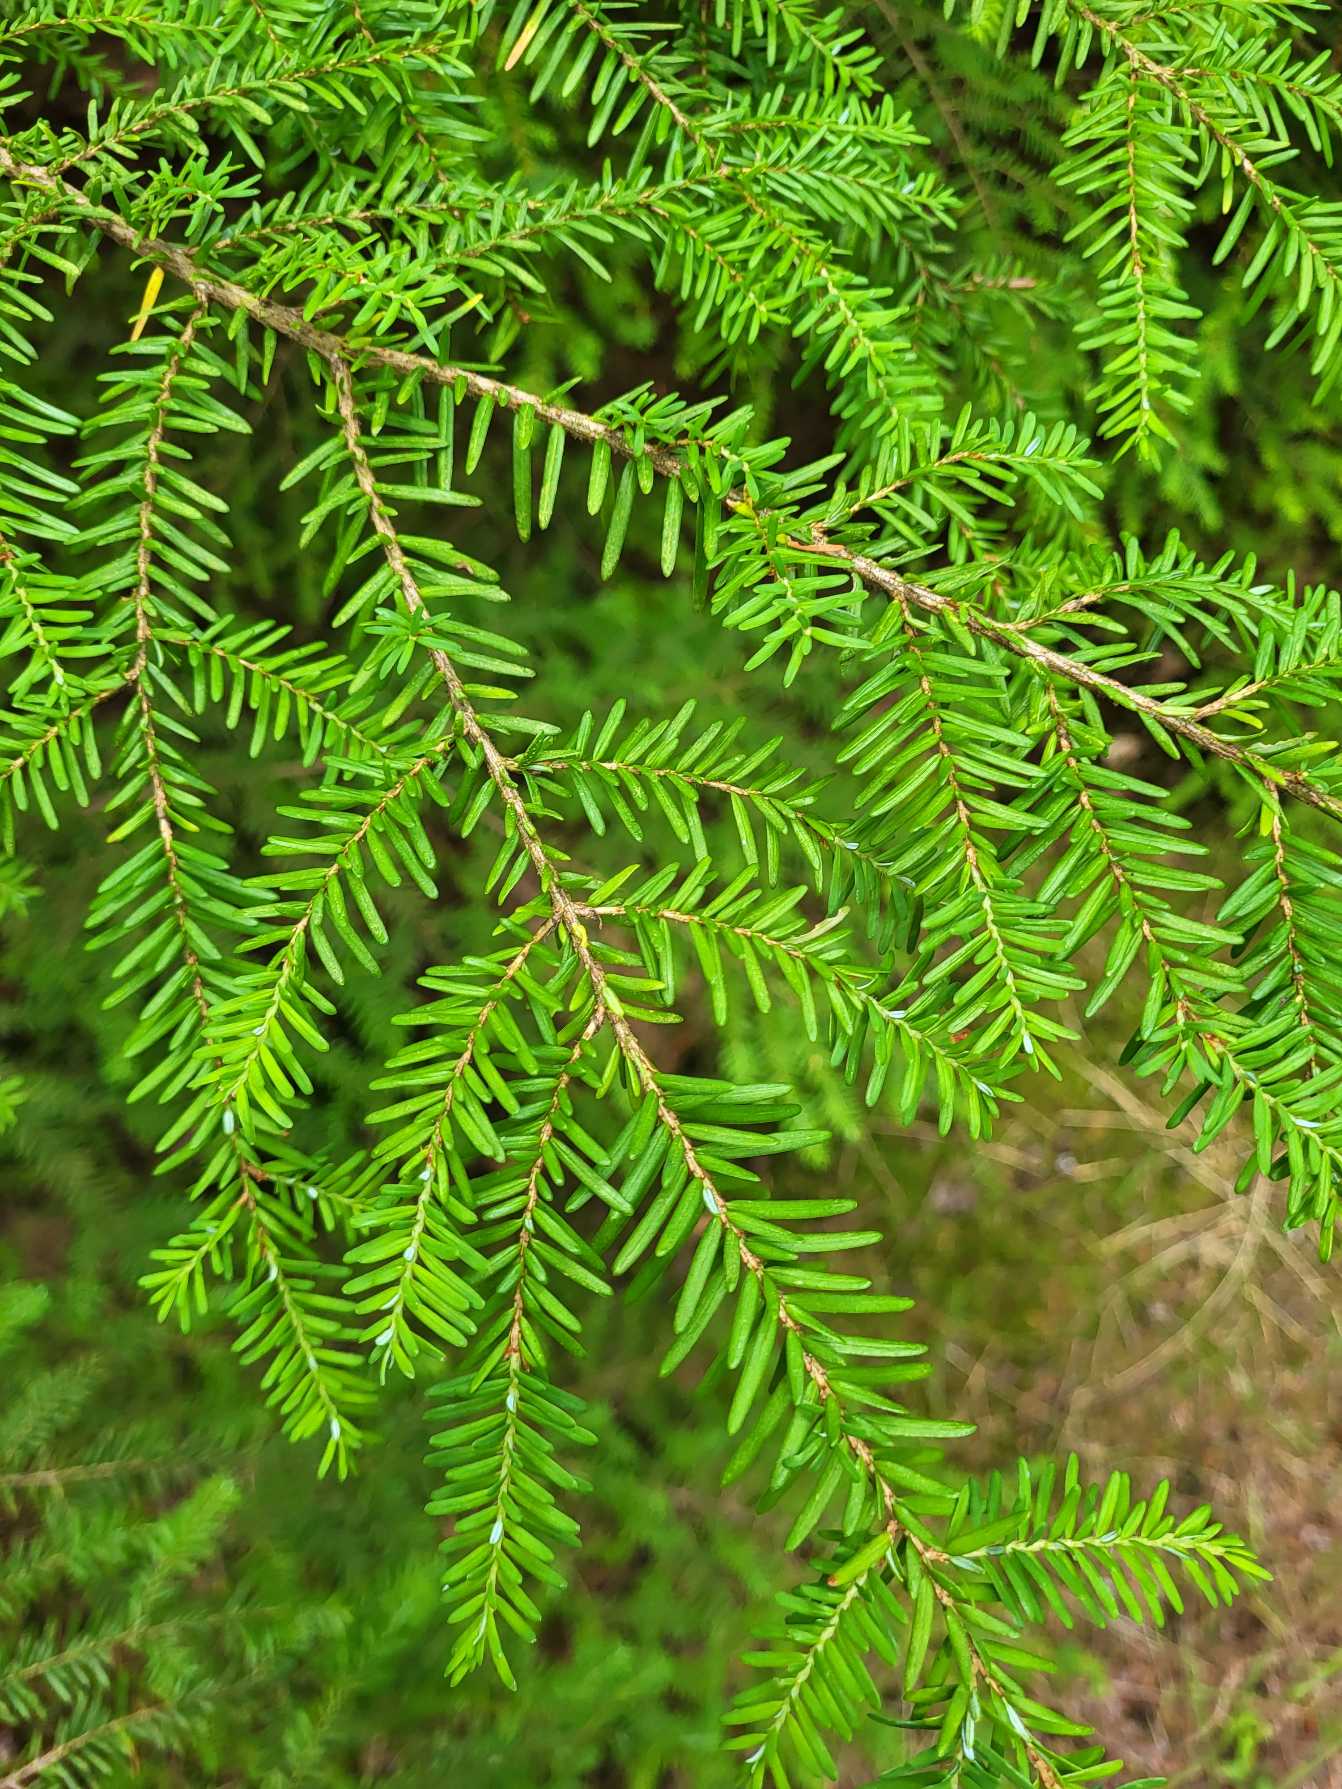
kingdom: Plantae
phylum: Tracheophyta
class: Pinopsida
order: Pinales
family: Pinaceae
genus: Tsuga
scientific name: Tsuga heterophylla
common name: Skarntydegran
